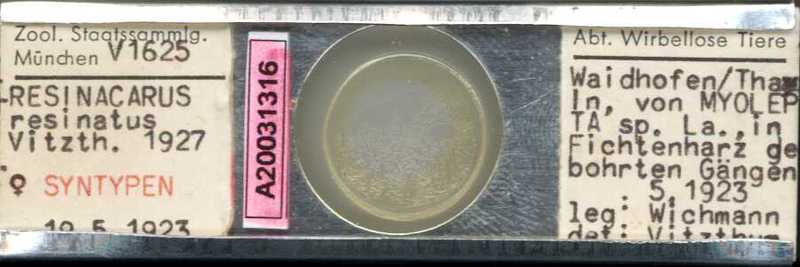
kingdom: Animalia
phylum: Arthropoda
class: Arachnida
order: Trombidiformes
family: Resinacaridae
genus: Resinacarus
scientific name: Resinacarus resinatus
